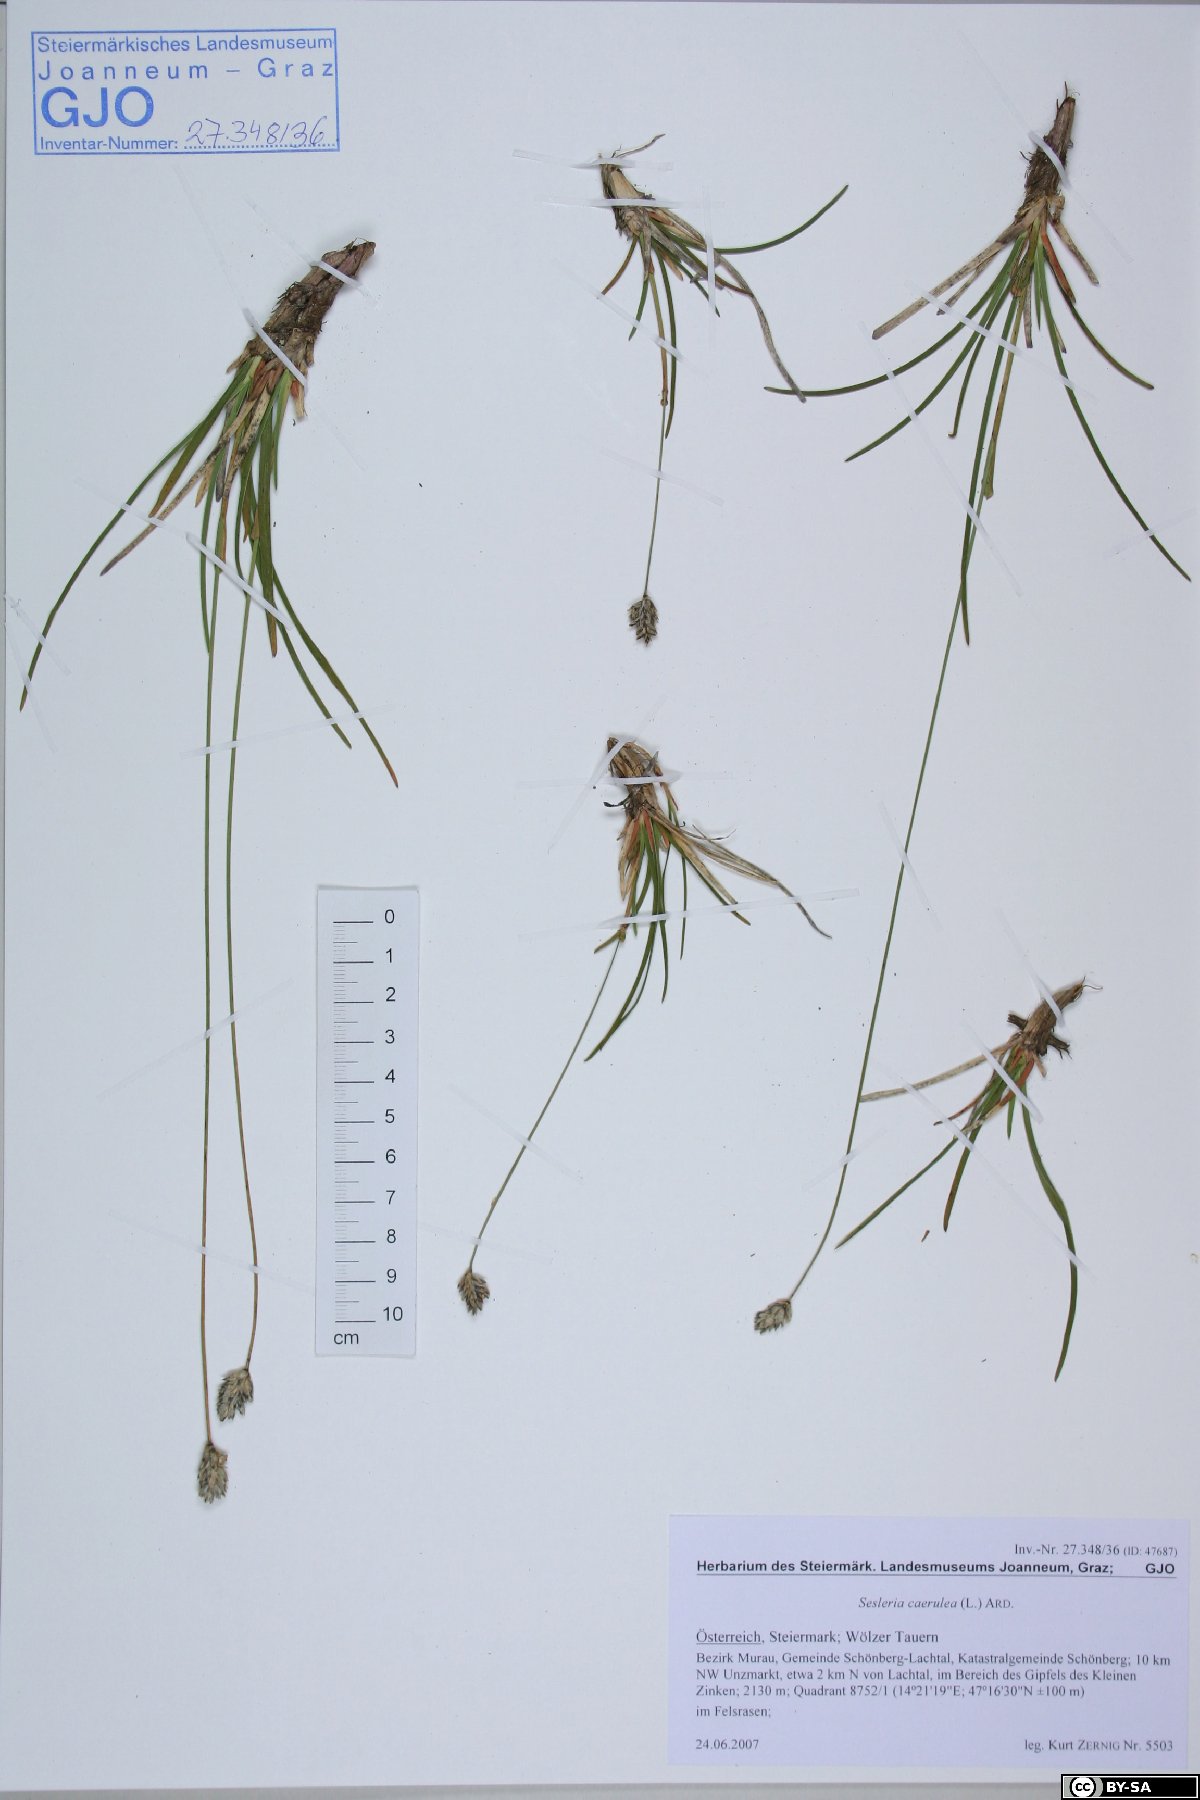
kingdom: Plantae
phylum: Tracheophyta
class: Liliopsida
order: Poales
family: Poaceae
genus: Sesleria
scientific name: Sesleria caerulea
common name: Blue moor-grass
